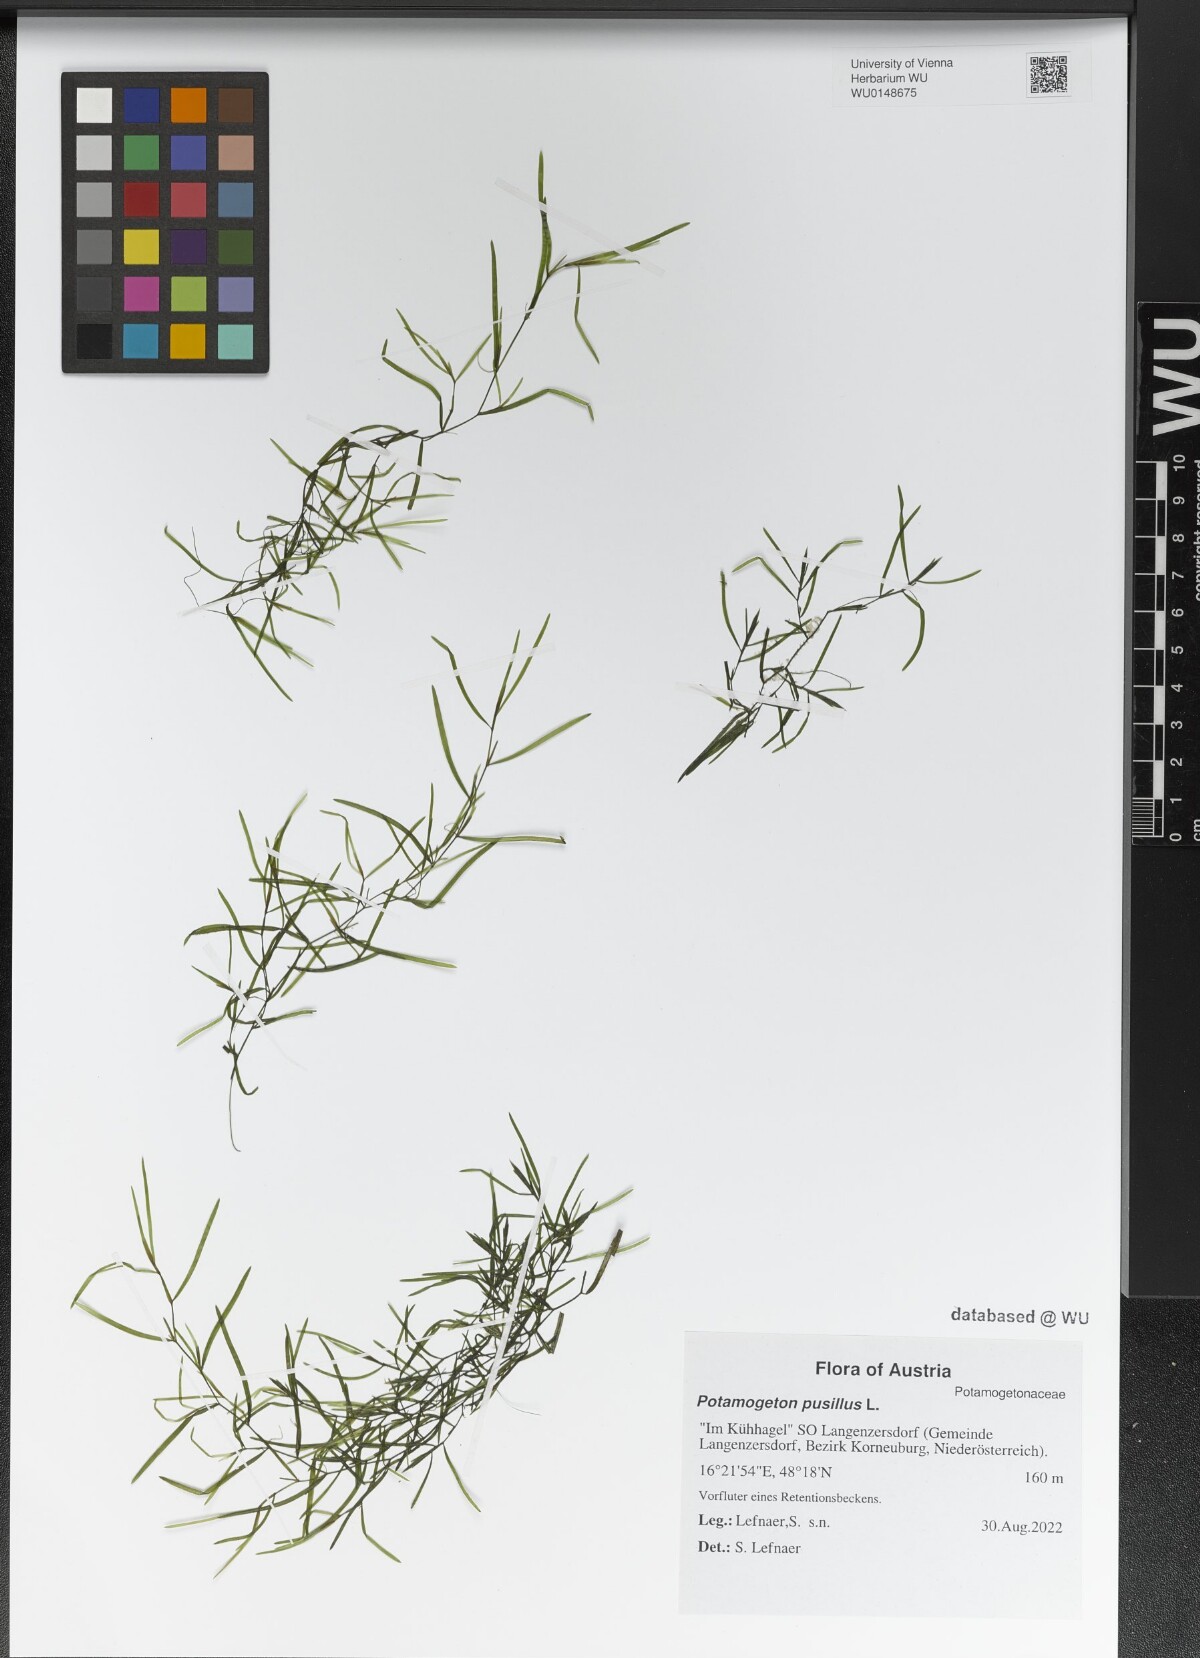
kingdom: Plantae
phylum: Tracheophyta
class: Liliopsida
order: Alismatales
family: Potamogetonaceae
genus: Potamogeton
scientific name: Potamogeton pusillus
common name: Lesser pondweed
